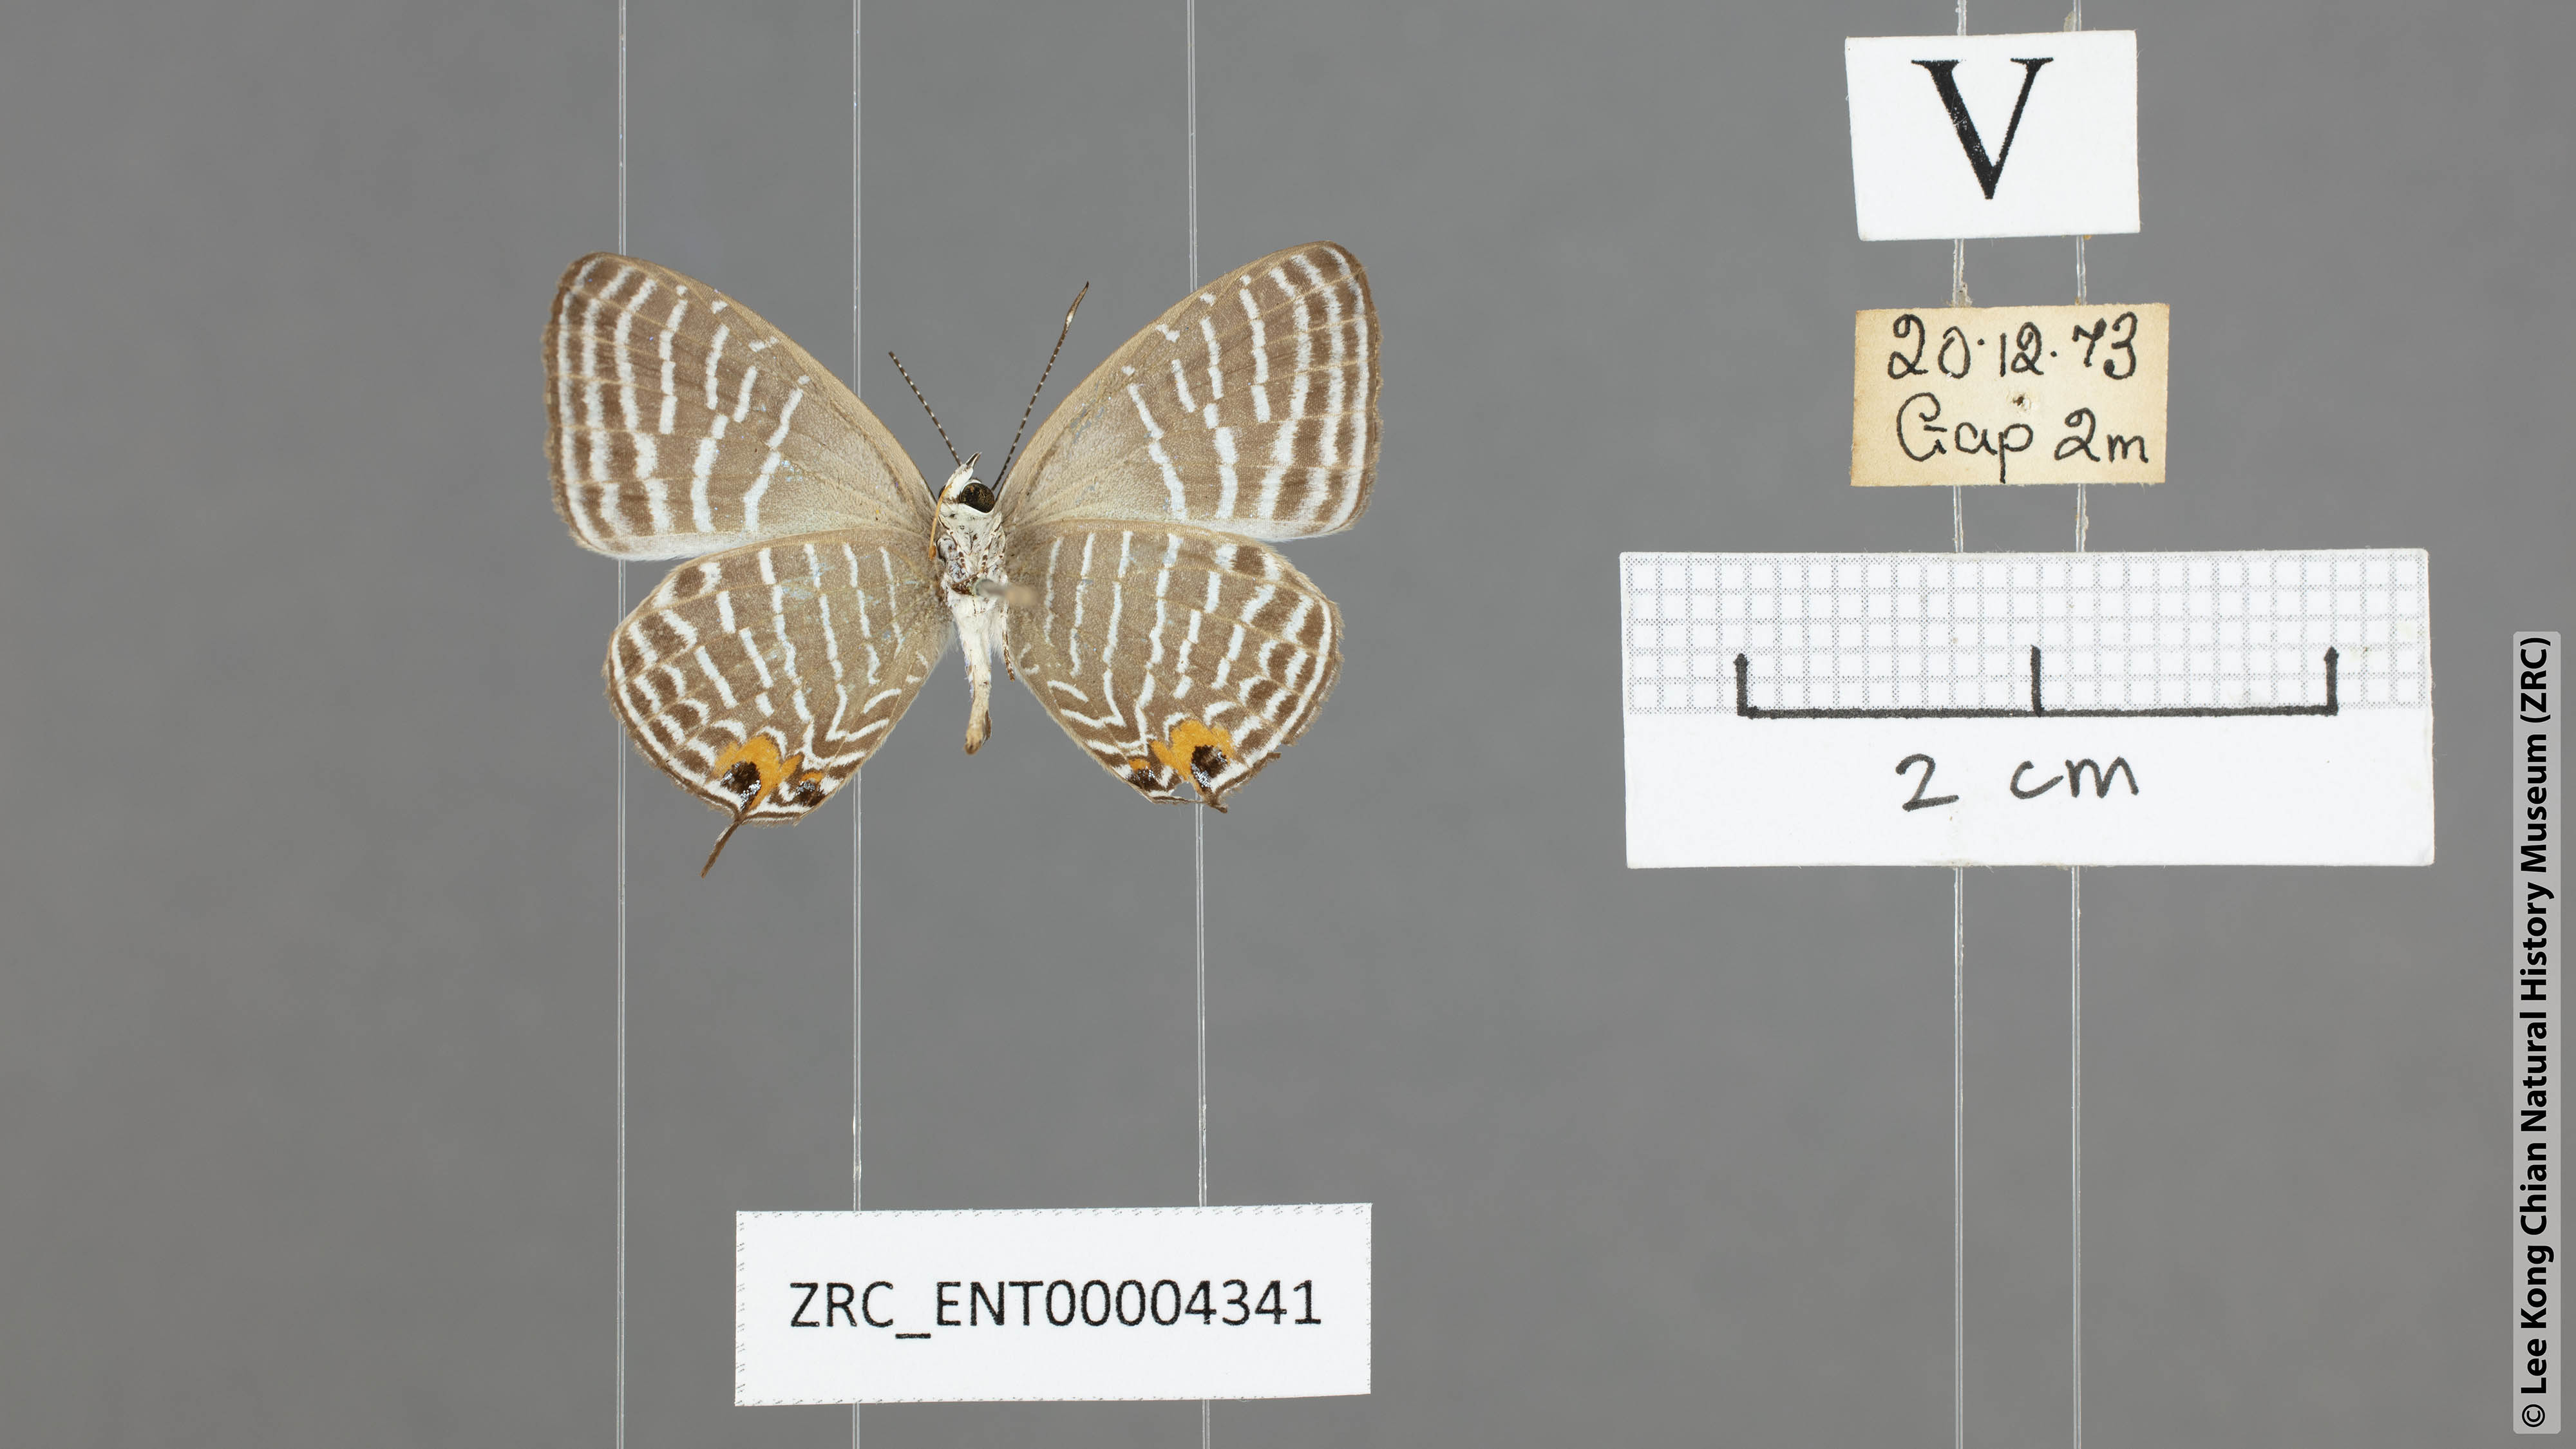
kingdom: Animalia
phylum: Arthropoda
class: Insecta
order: Lepidoptera
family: Lycaenidae
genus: Jamides
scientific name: Jamides parasaturata
